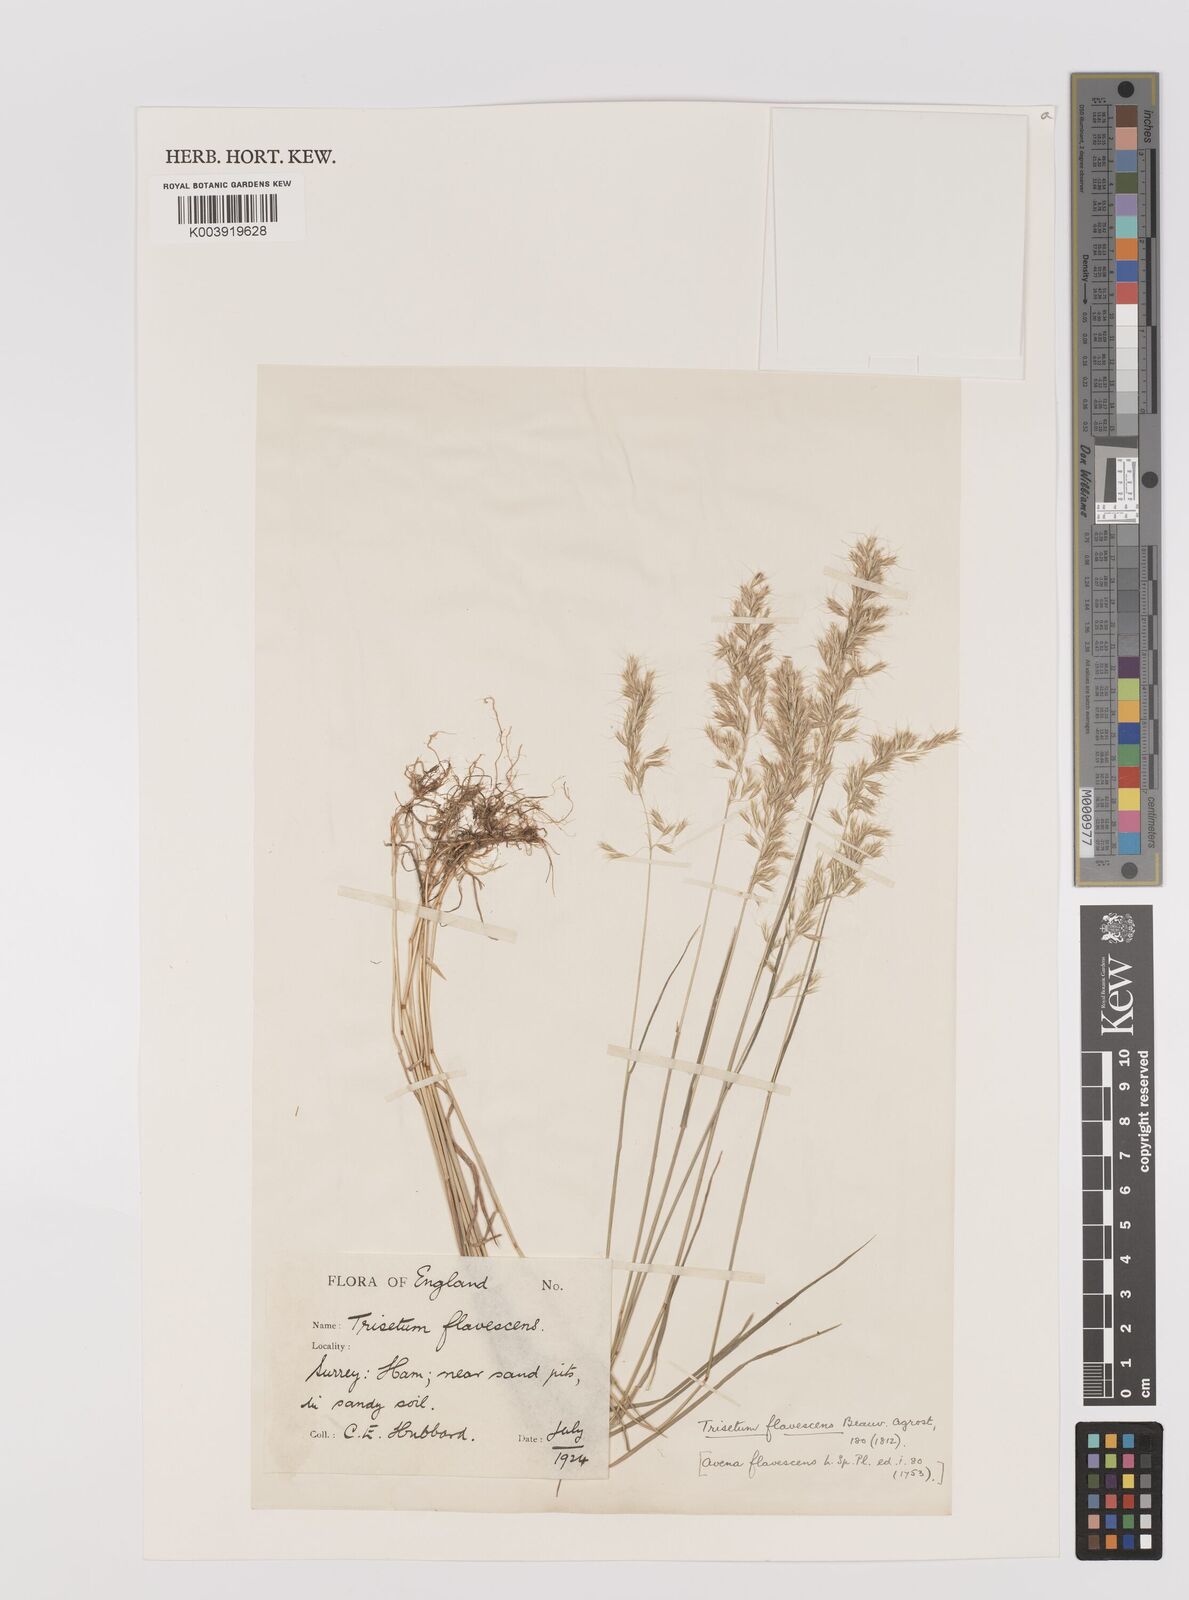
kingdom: Plantae
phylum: Tracheophyta
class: Liliopsida
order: Poales
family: Poaceae
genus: Trisetum
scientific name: Trisetum flavescens
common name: Yellow oat-grass
